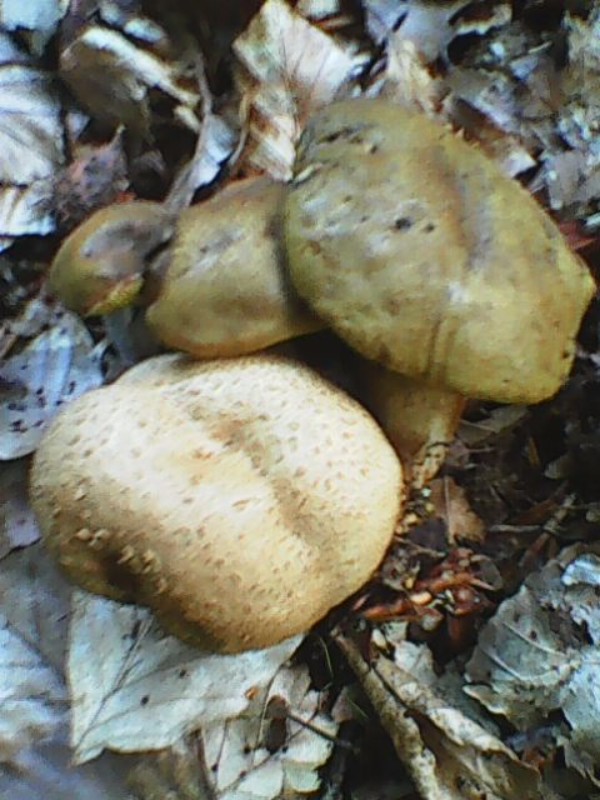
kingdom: Fungi
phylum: Basidiomycota
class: Agaricomycetes
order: Boletales
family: Boletaceae
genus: Pseudoboletus
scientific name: Pseudoboletus parasiticus
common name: snyltende rørhat
